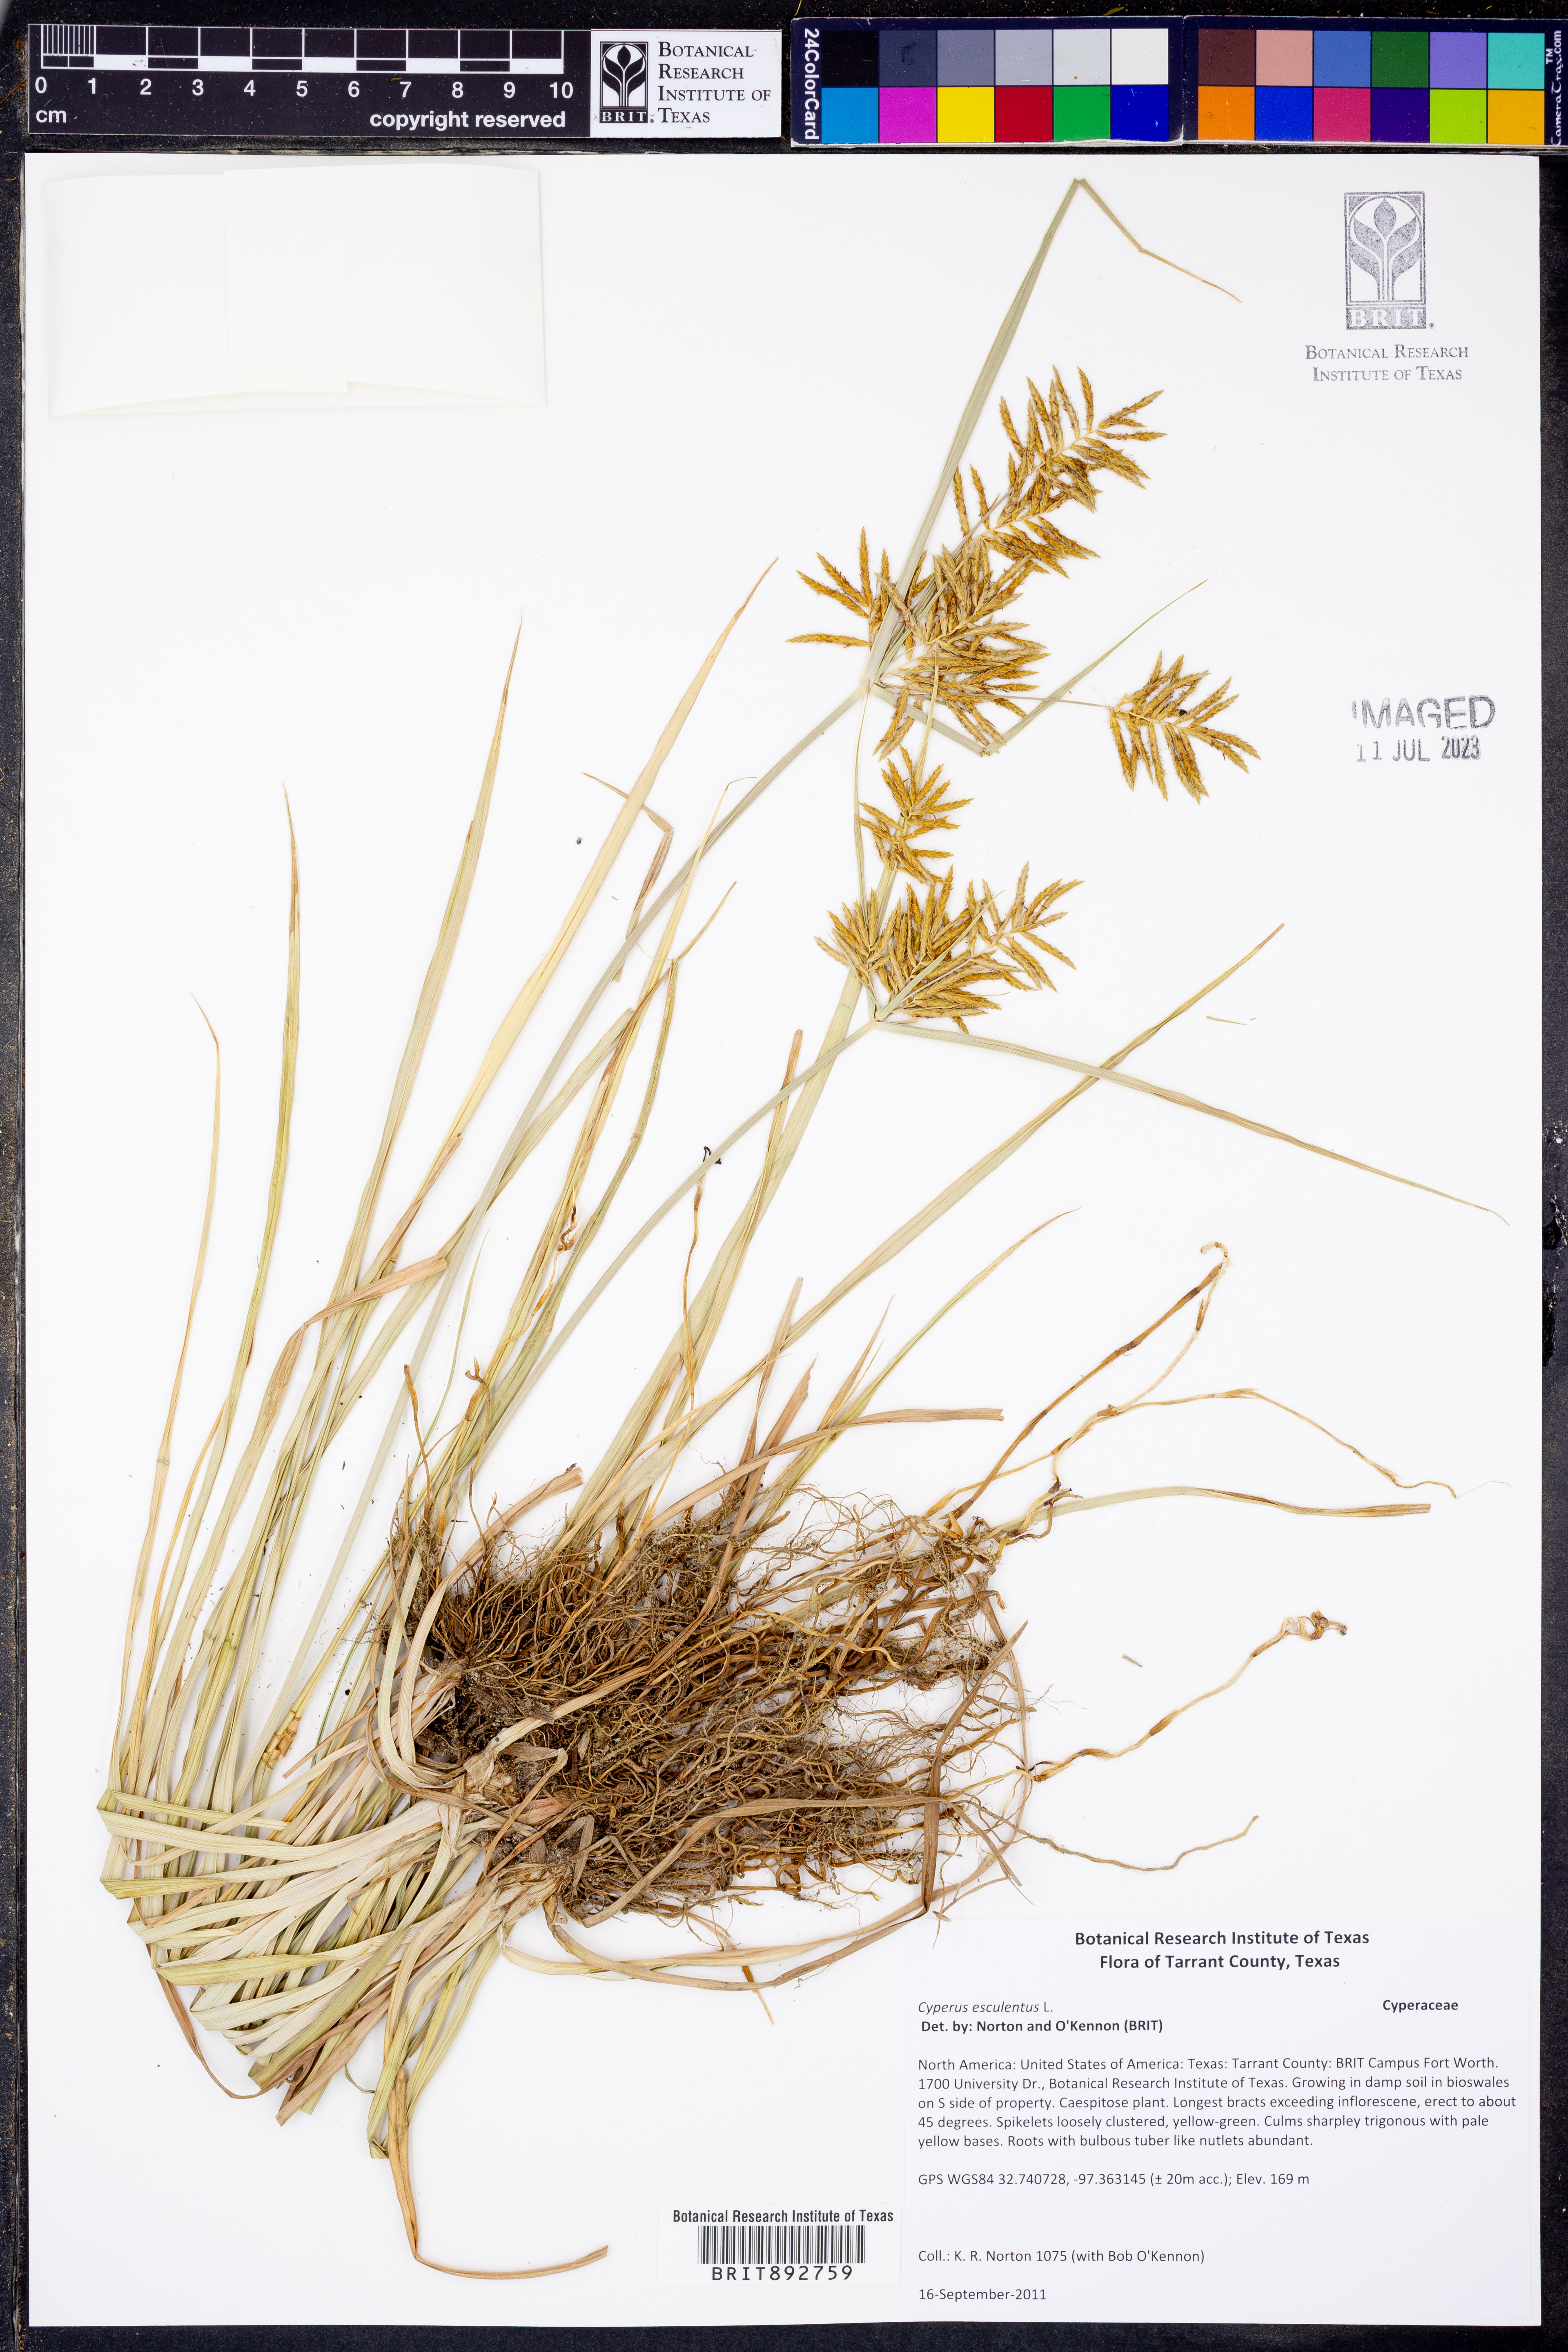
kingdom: Plantae
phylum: Tracheophyta
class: Liliopsida
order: Poales
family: Cyperaceae
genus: Cyperus
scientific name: Cyperus esculentus
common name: Yellow nutsedge
